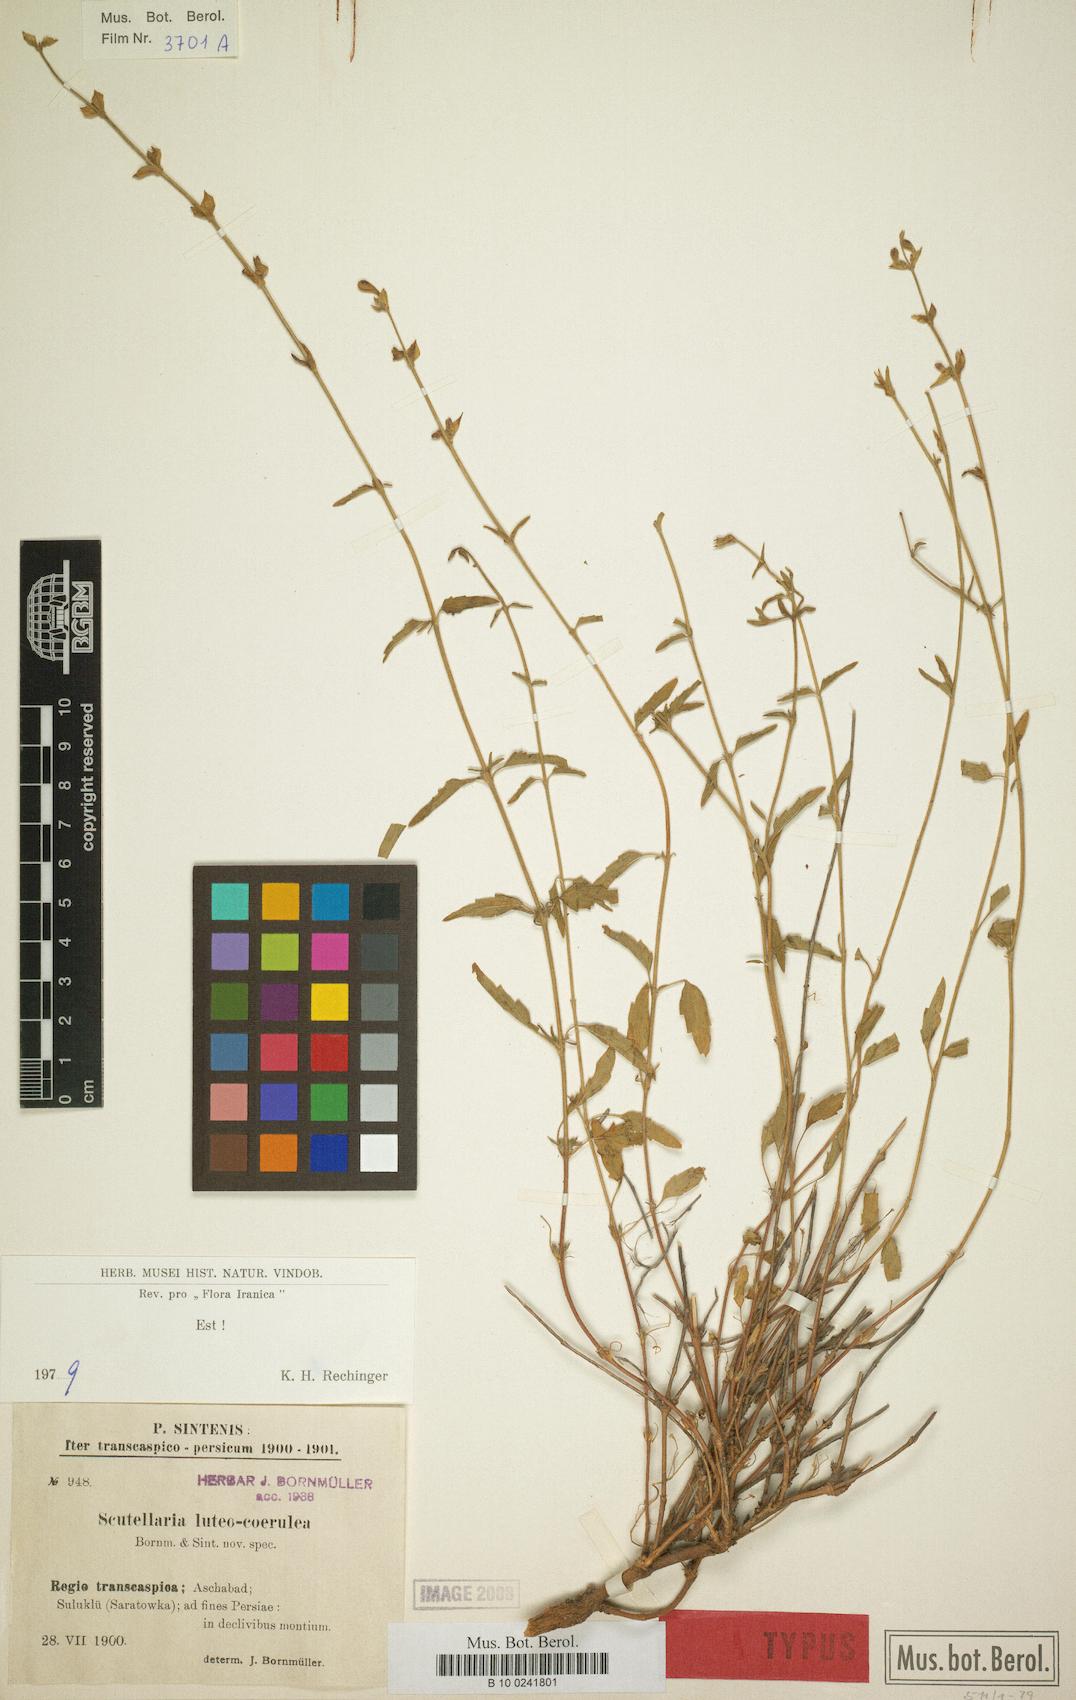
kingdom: Plantae
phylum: Tracheophyta
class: Magnoliopsida
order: Lamiales
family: Lamiaceae
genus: Scutellaria
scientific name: Scutellaria luteocaerulea
